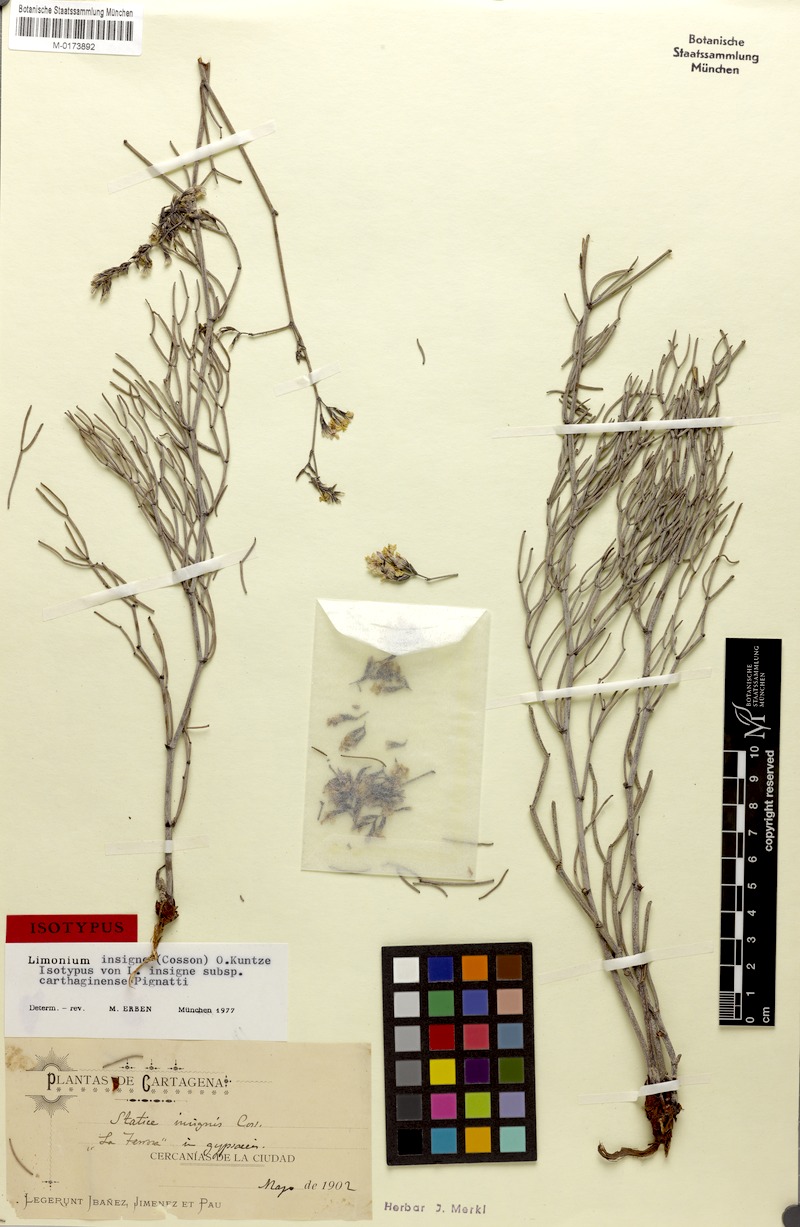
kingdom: Plantae
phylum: Tracheophyta
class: Magnoliopsida
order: Caryophyllales
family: Plumbaginaceae
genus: Limonium
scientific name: Limonium insigne
